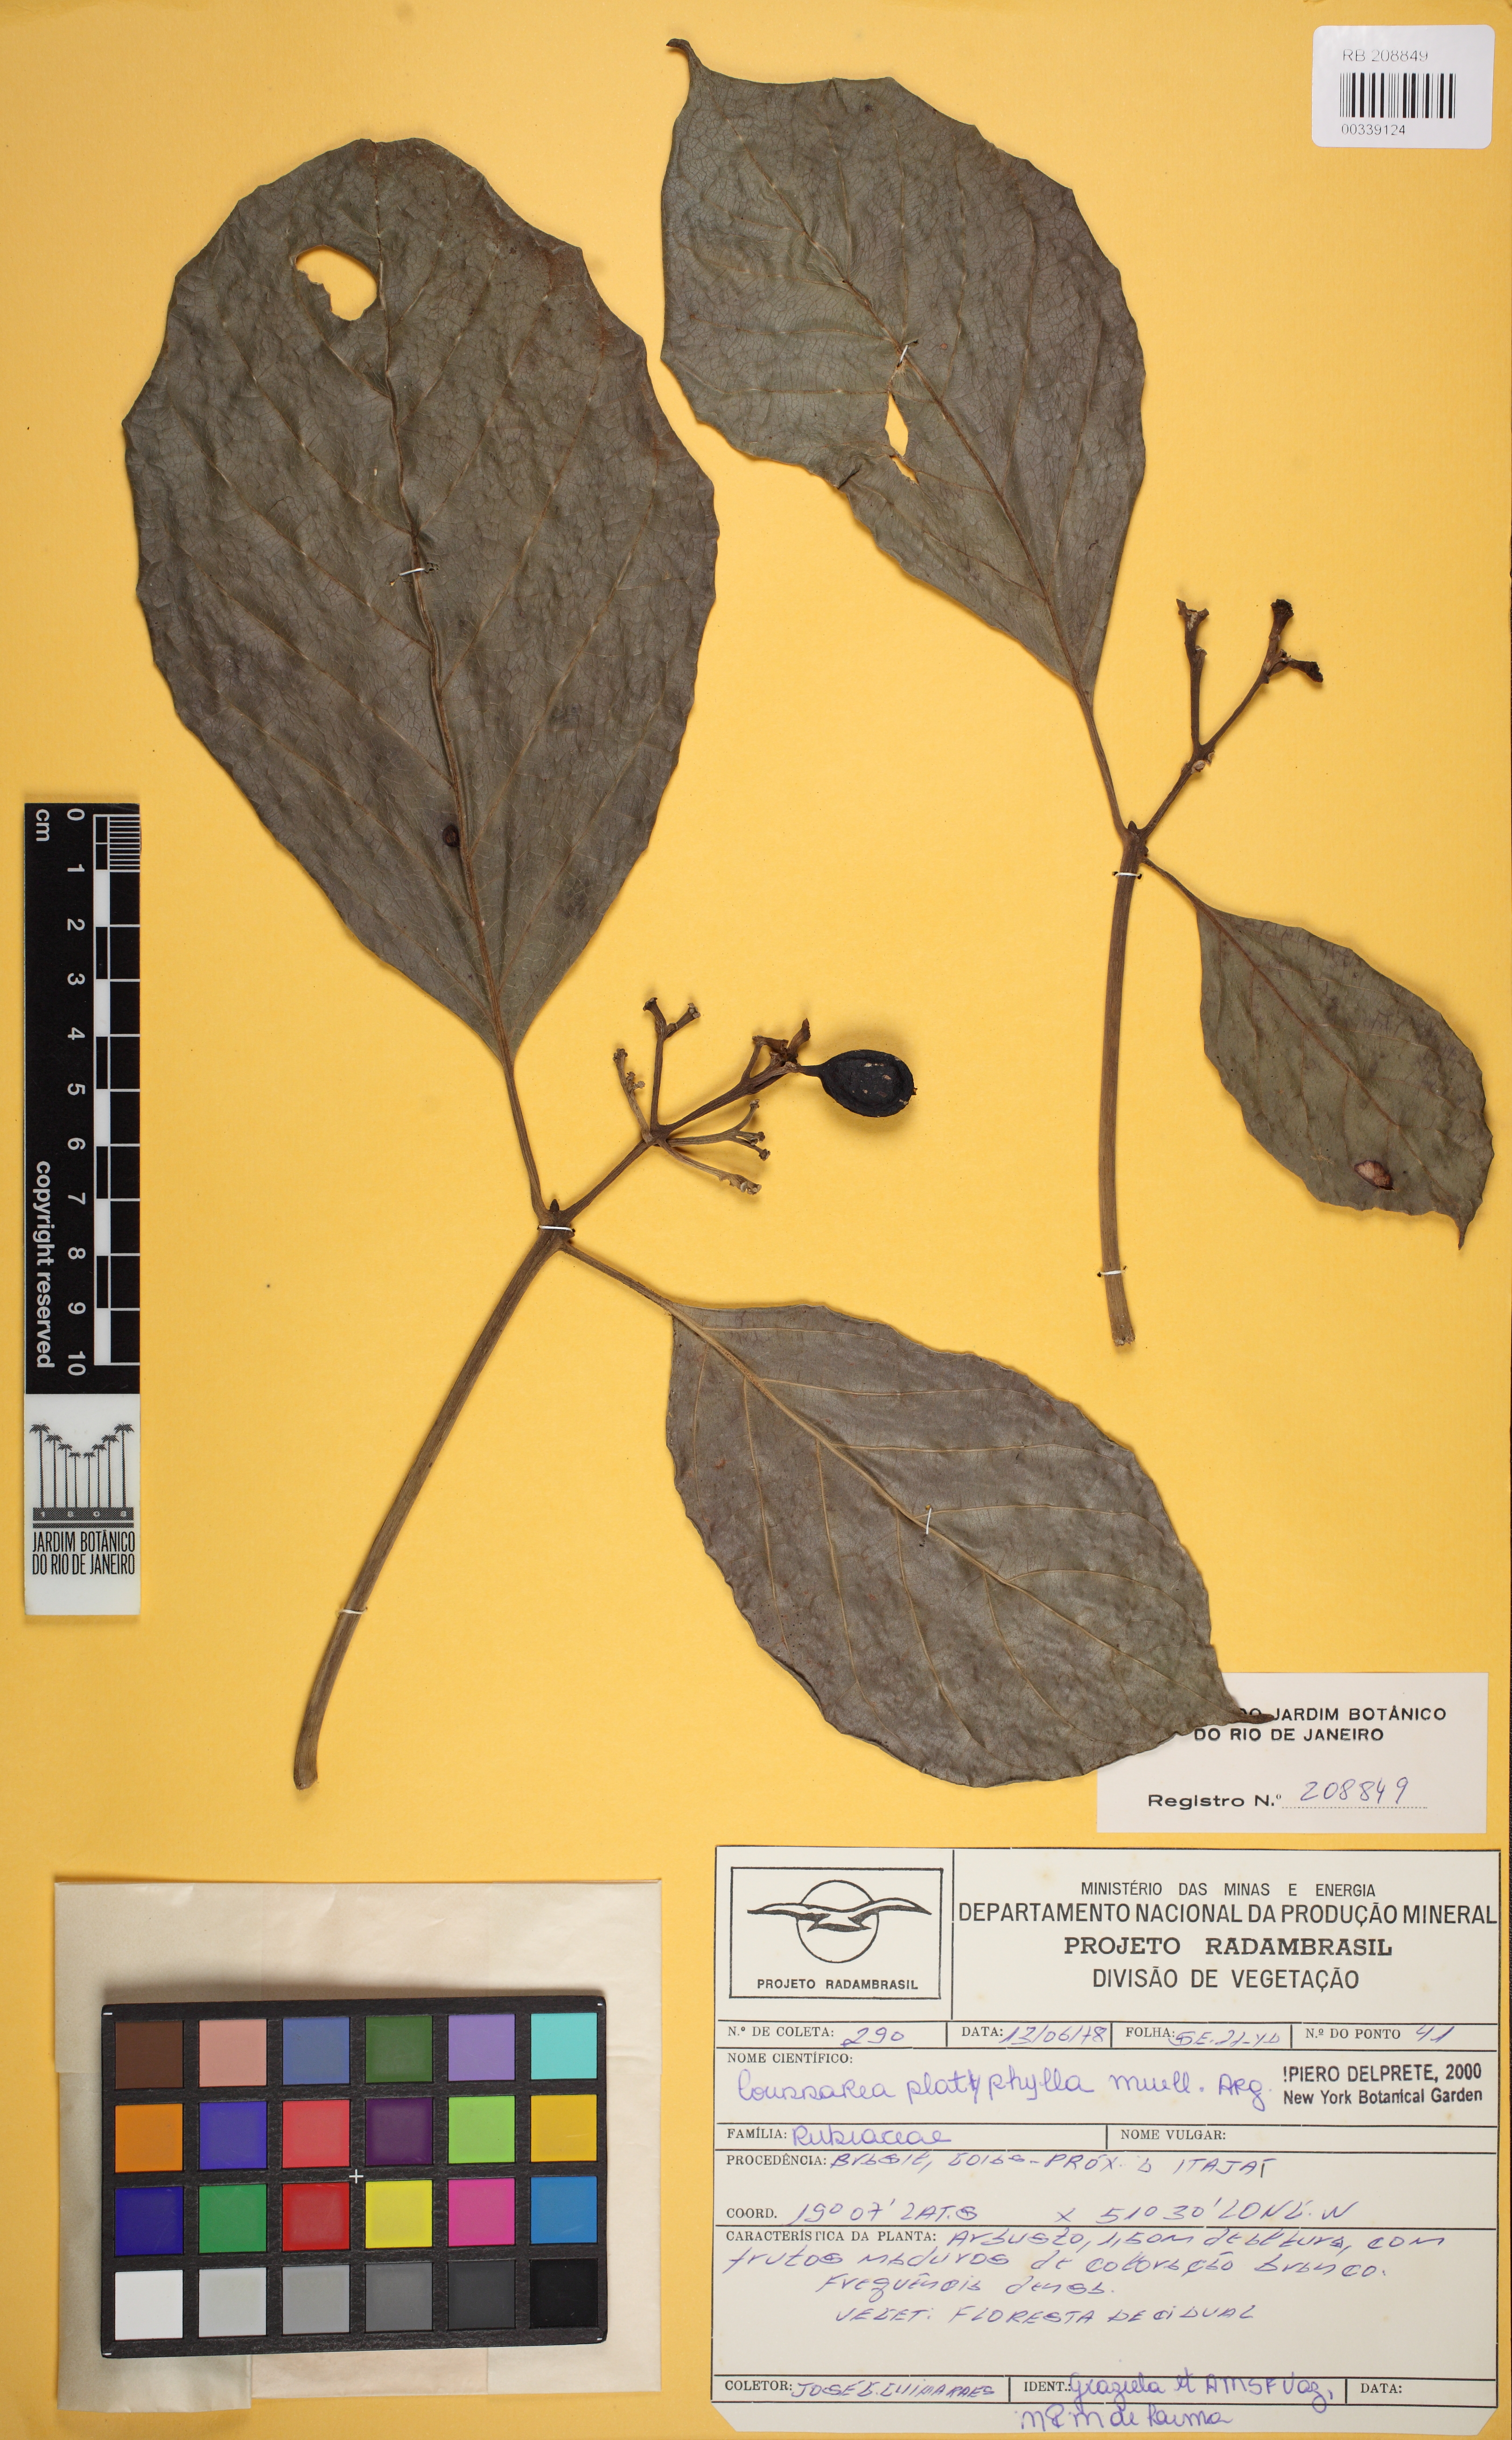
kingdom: Plantae
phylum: Tracheophyta
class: Magnoliopsida
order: Gentianales
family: Rubiaceae
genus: Coussarea
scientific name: Coussarea platyphylla
